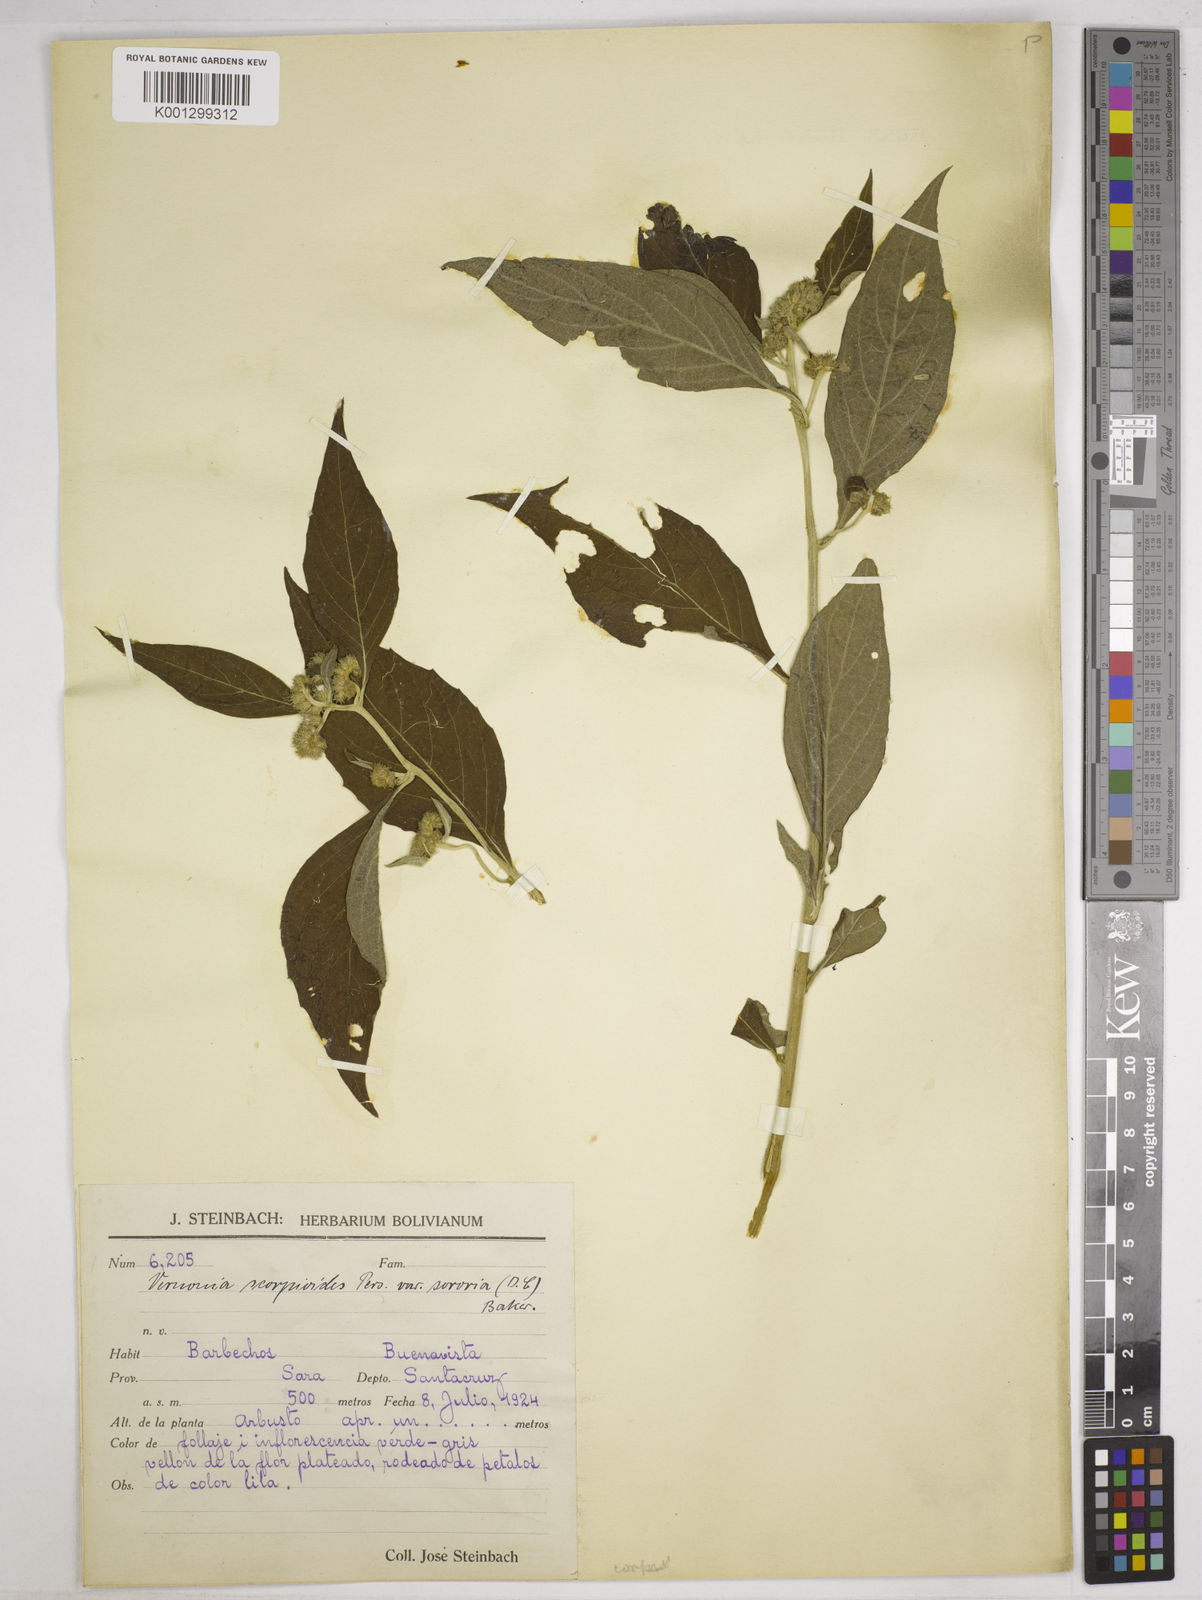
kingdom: Plantae
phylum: Tracheophyta
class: Magnoliopsida
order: Asterales
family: Asteraceae
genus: Lepidaploa
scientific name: Lepidaploa sororia
